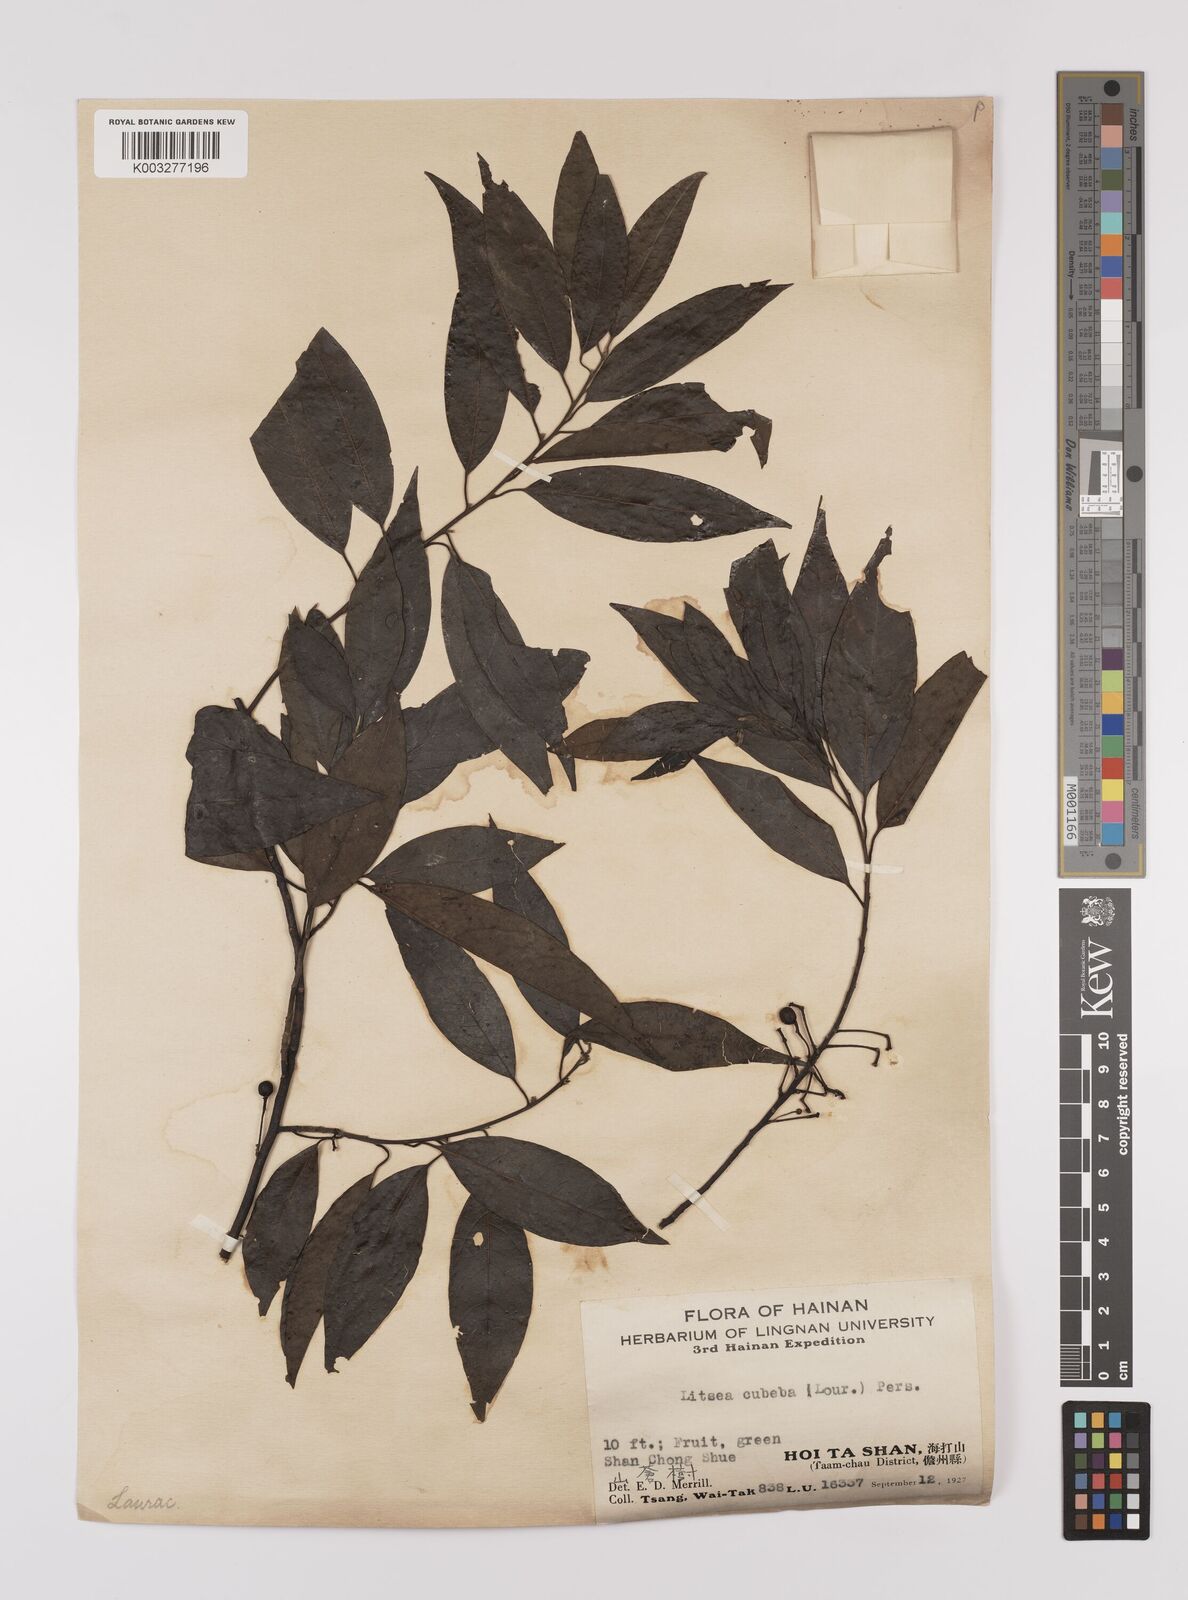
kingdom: Plantae
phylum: Tracheophyta
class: Magnoliopsida
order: Laurales
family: Lauraceae
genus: Litsea
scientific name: Litsea cubeba
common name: Mountain-pepper
